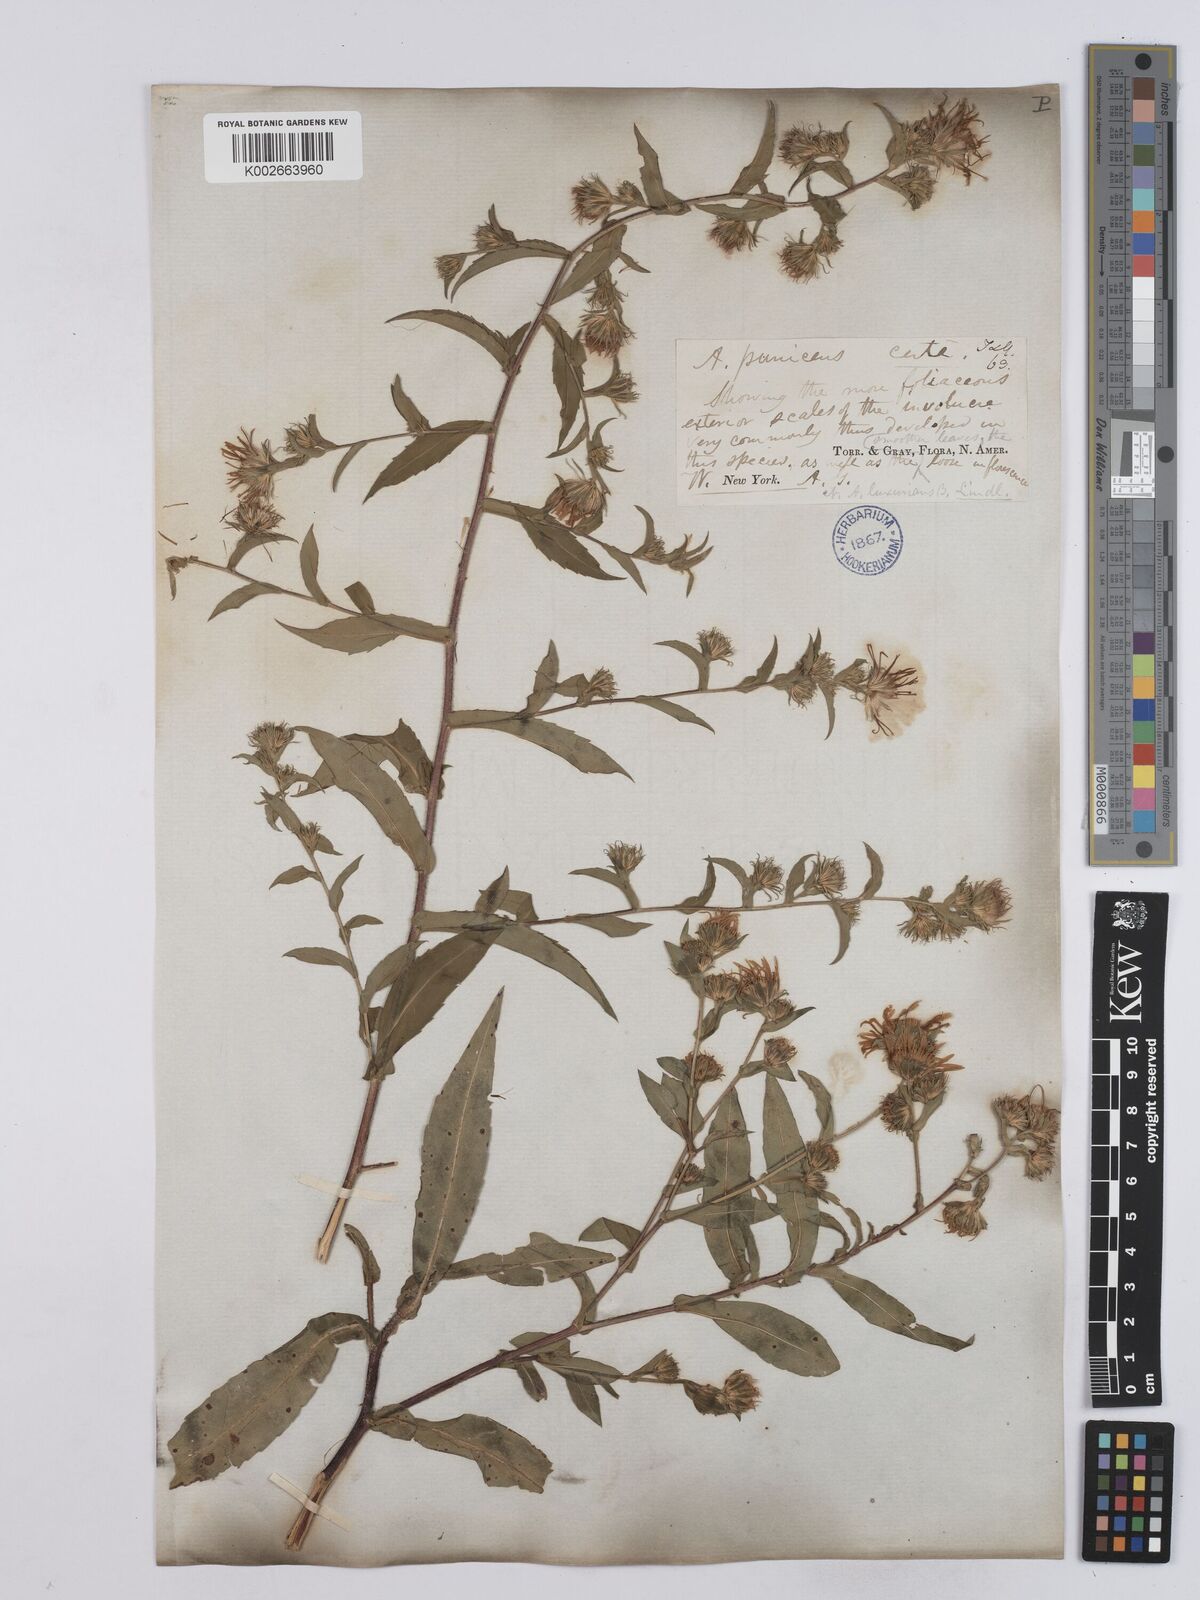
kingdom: Plantae
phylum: Tracheophyta
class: Magnoliopsida
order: Asterales
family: Asteraceae
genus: Symphyotrichum
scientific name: Symphyotrichum puniceum
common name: Bog aster
